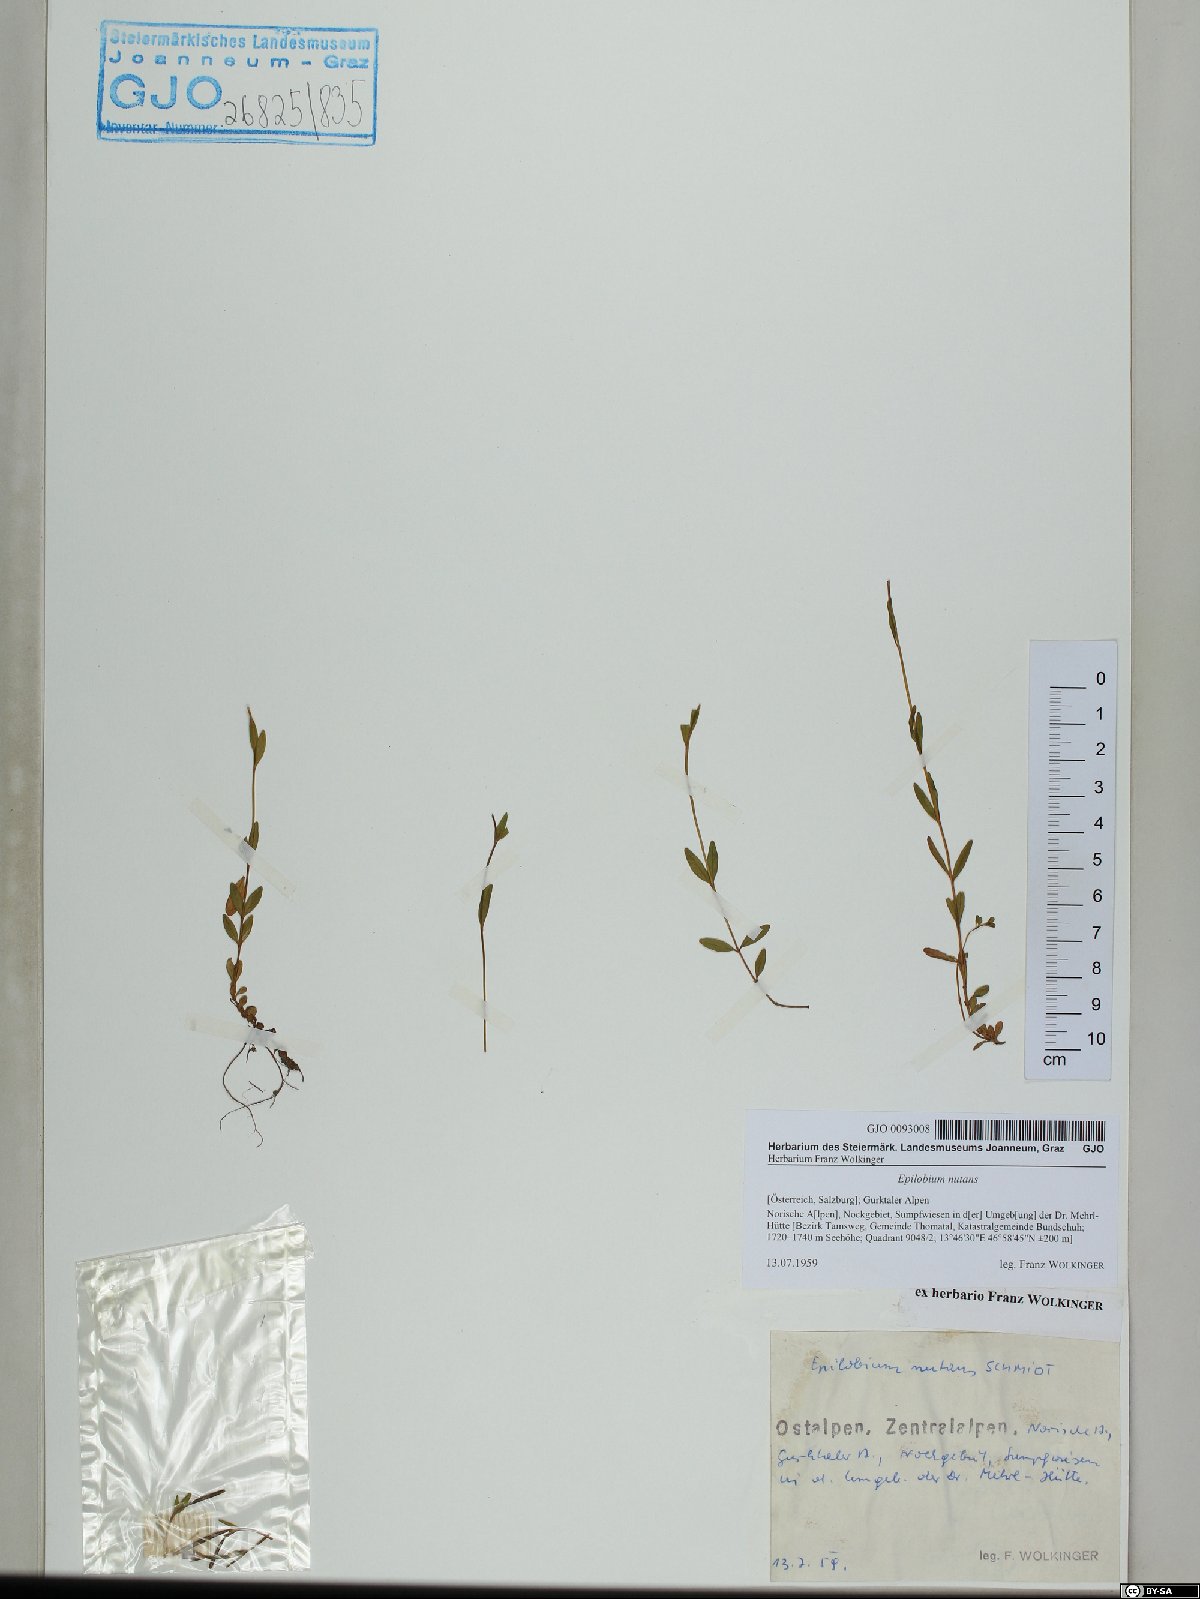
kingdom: Plantae
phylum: Tracheophyta
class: Magnoliopsida
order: Myrtales
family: Onagraceae
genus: Epilobium
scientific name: Epilobium nutans
